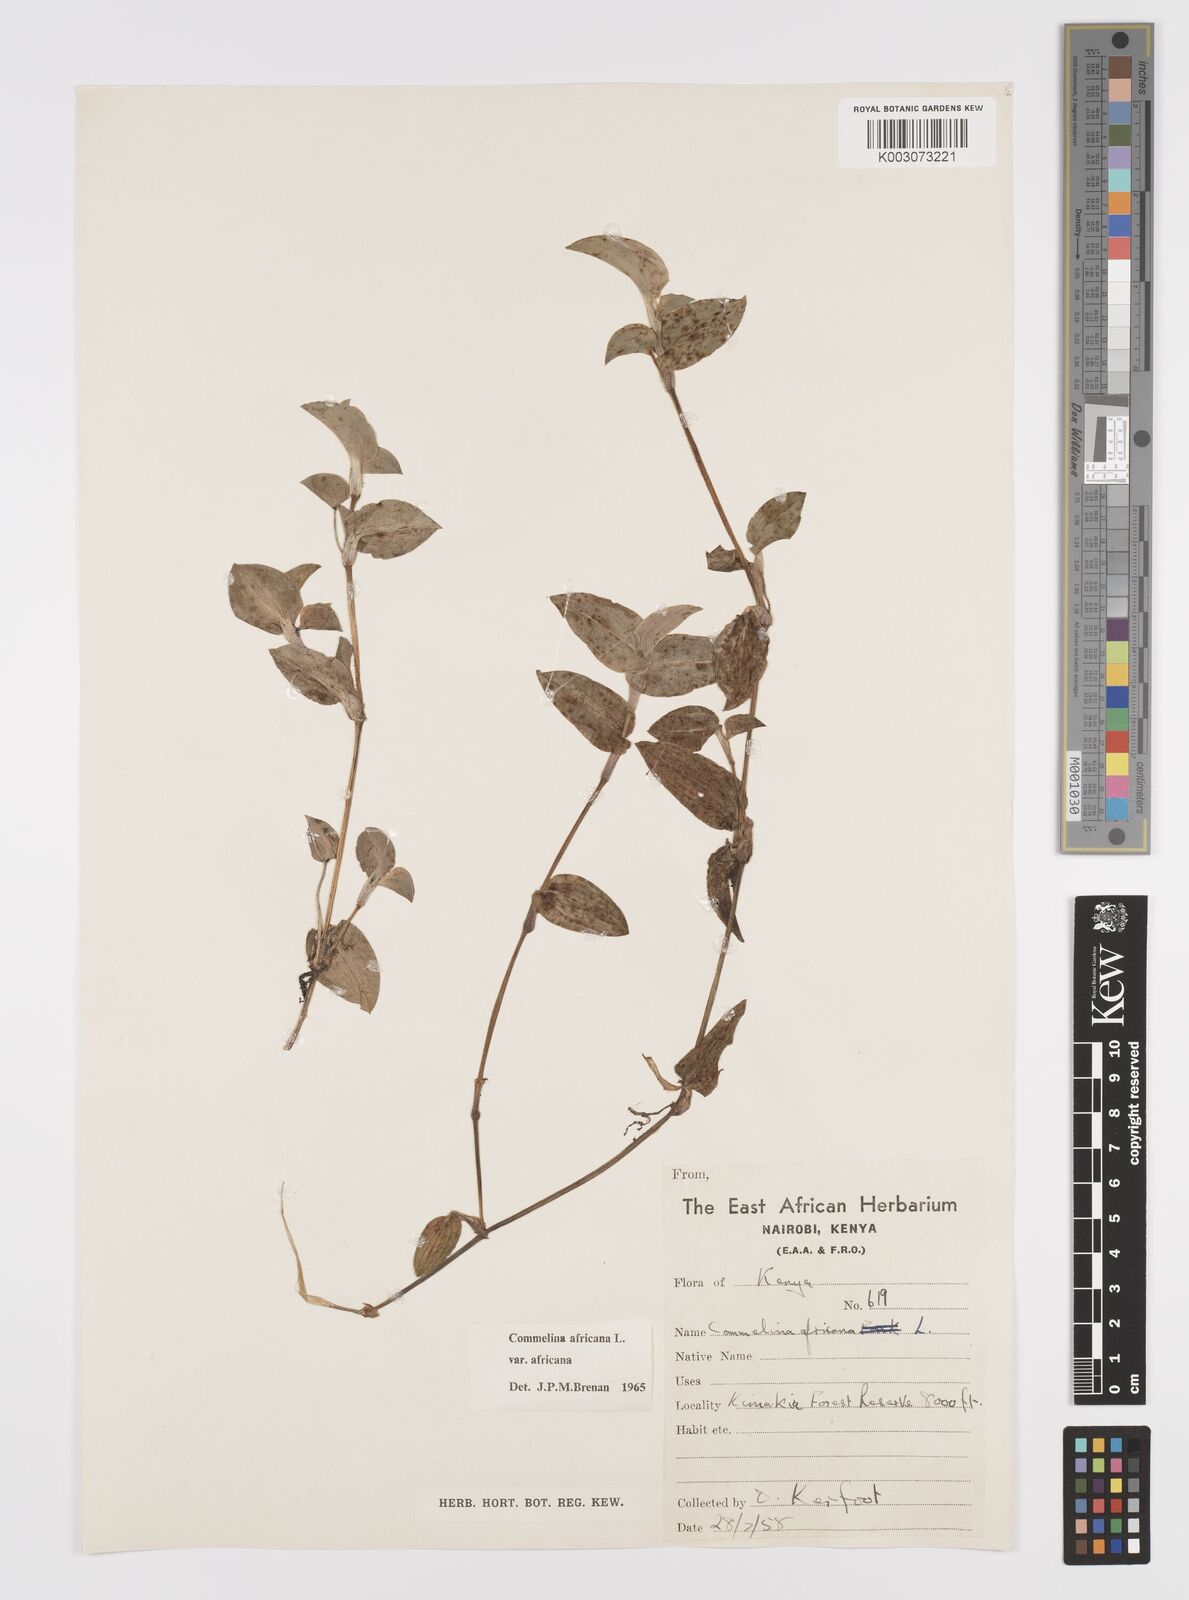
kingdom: Plantae
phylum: Tracheophyta
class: Liliopsida
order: Commelinales
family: Commelinaceae
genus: Commelina
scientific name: Commelina africana
